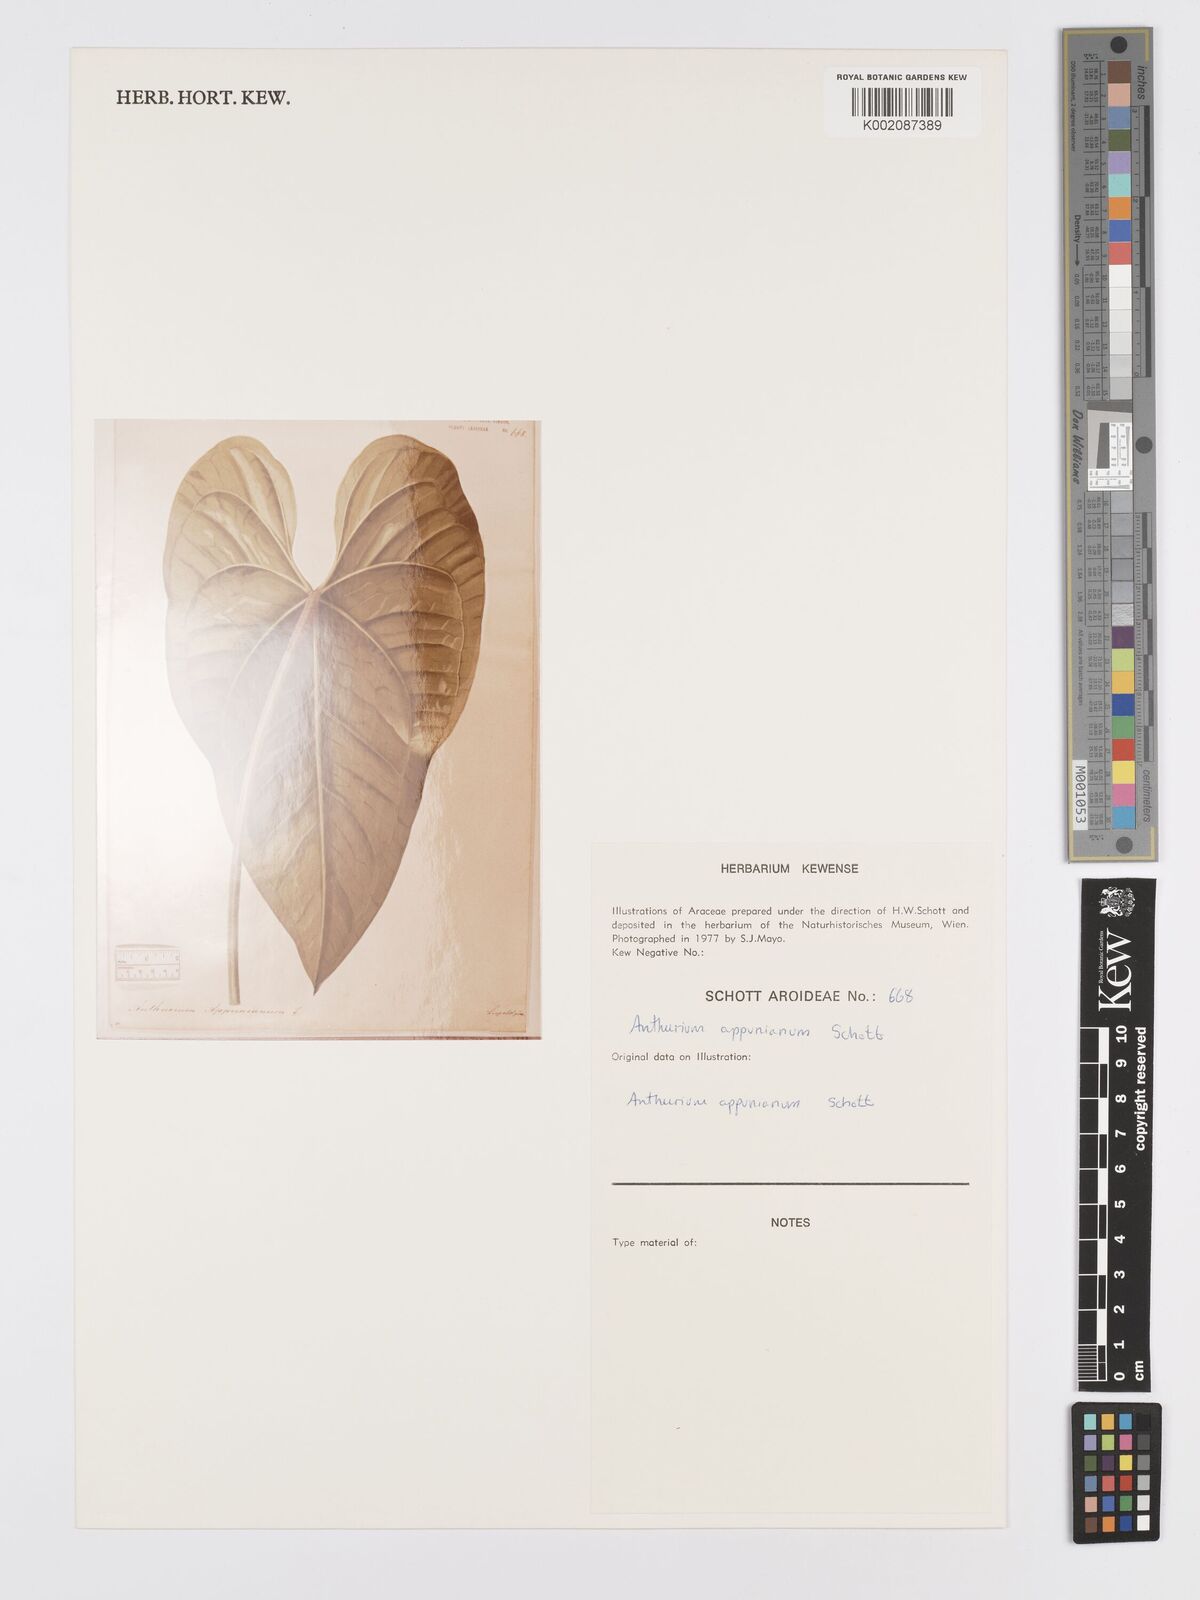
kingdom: Plantae
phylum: Tracheophyta
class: Liliopsida
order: Alismatales
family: Araceae
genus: Anthurium
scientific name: Anthurium cartilagineum
